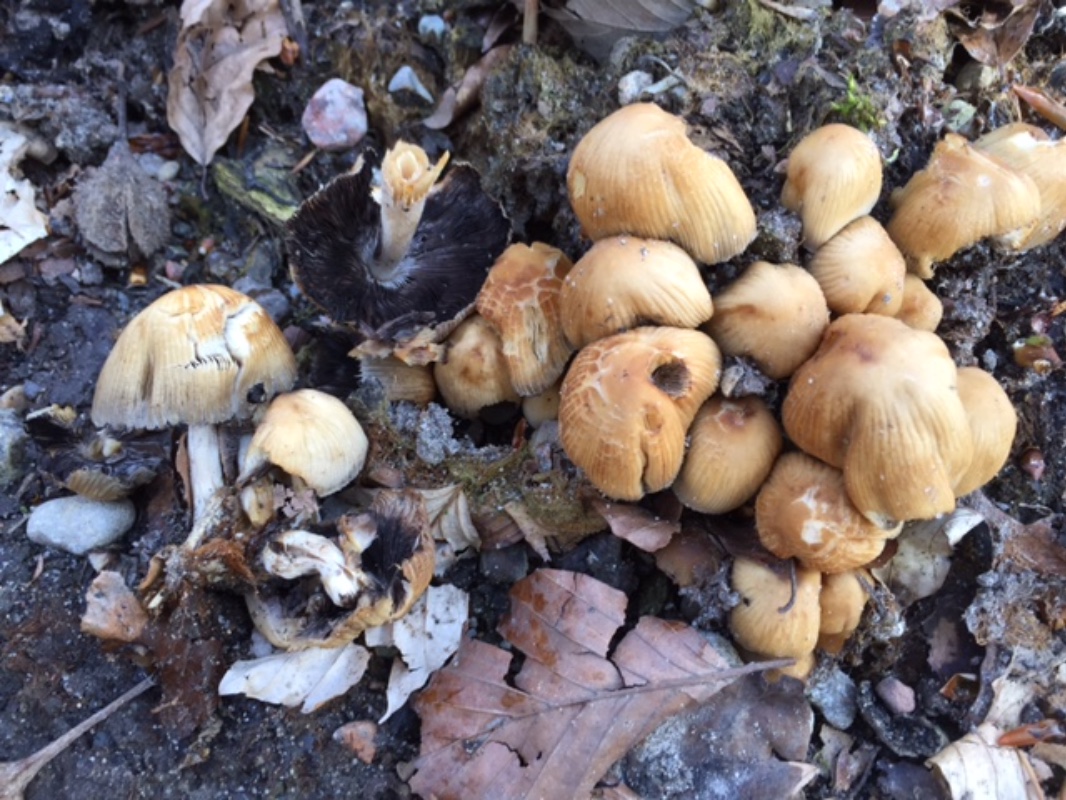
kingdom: Fungi
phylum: Basidiomycota
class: Agaricomycetes
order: Agaricales
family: Psathyrellaceae
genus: Coprinellus
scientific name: Coprinellus micaceus
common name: glimmer-blækhat
